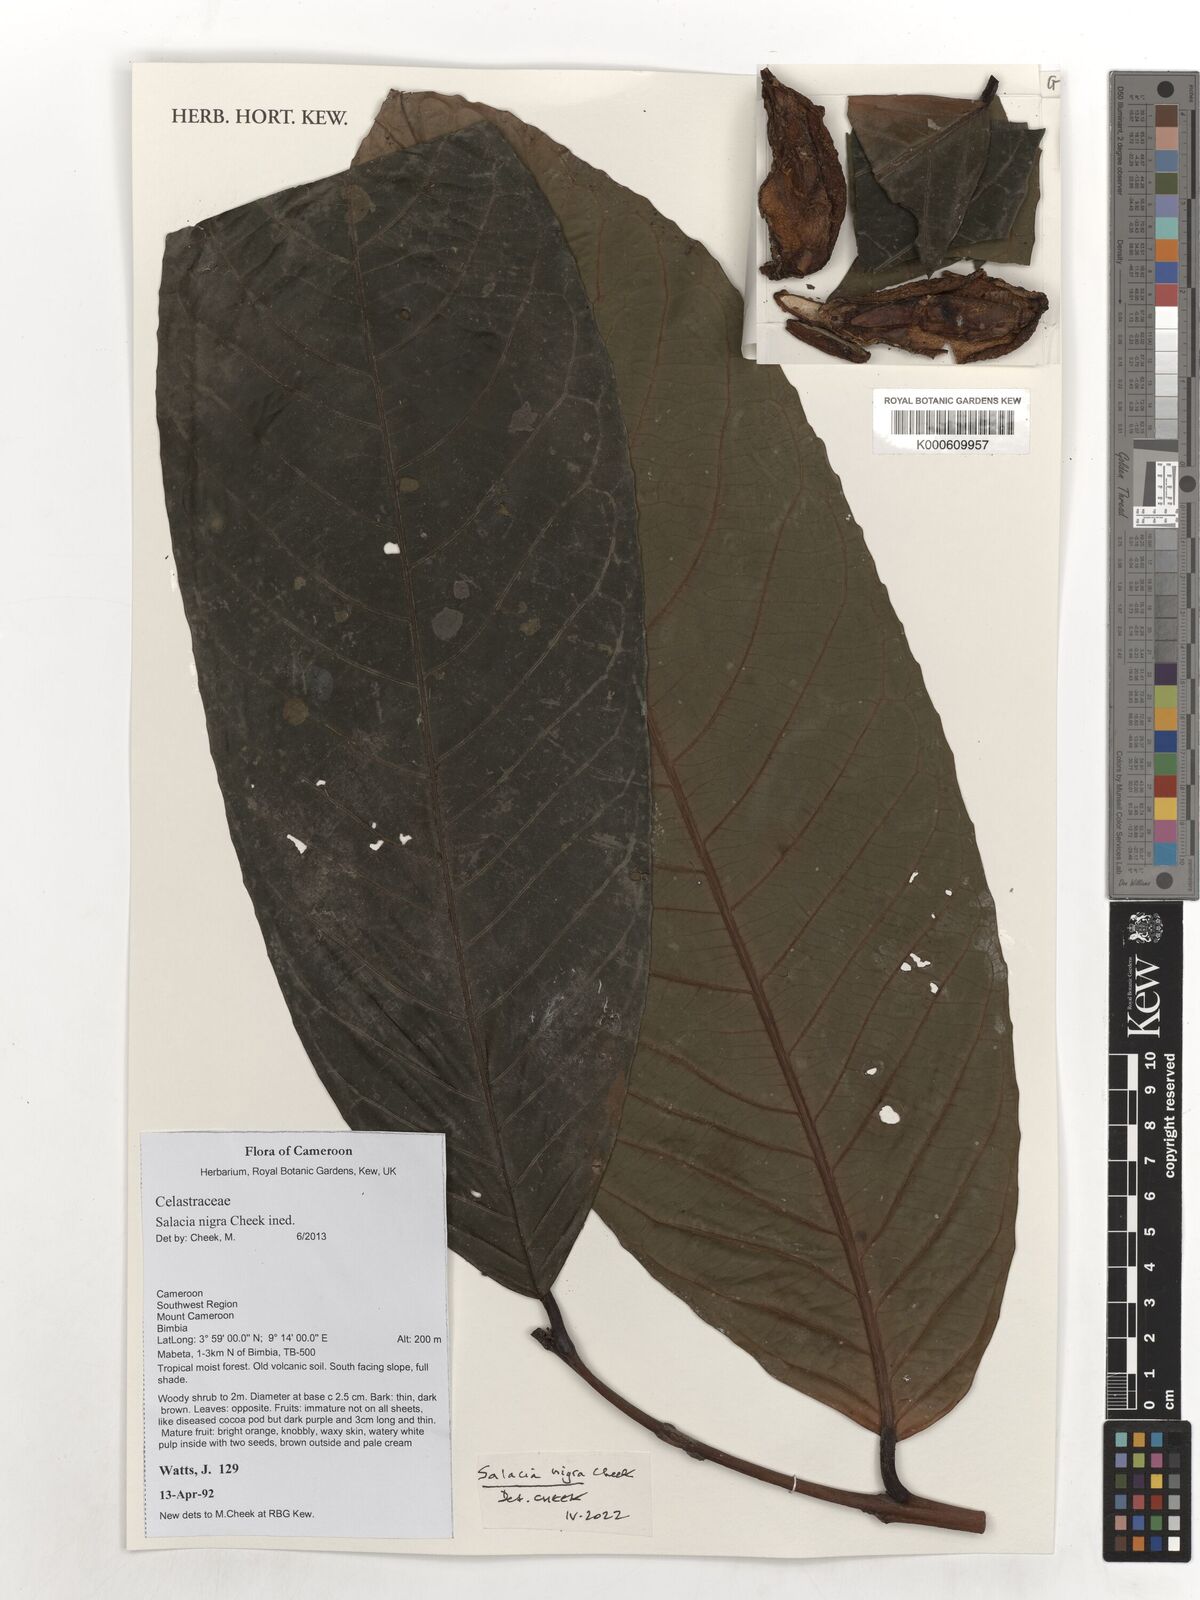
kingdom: Plantae
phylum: Tracheophyta
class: Magnoliopsida
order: Celastrales
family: Celastraceae
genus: Salacia
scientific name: Salacia nigra
